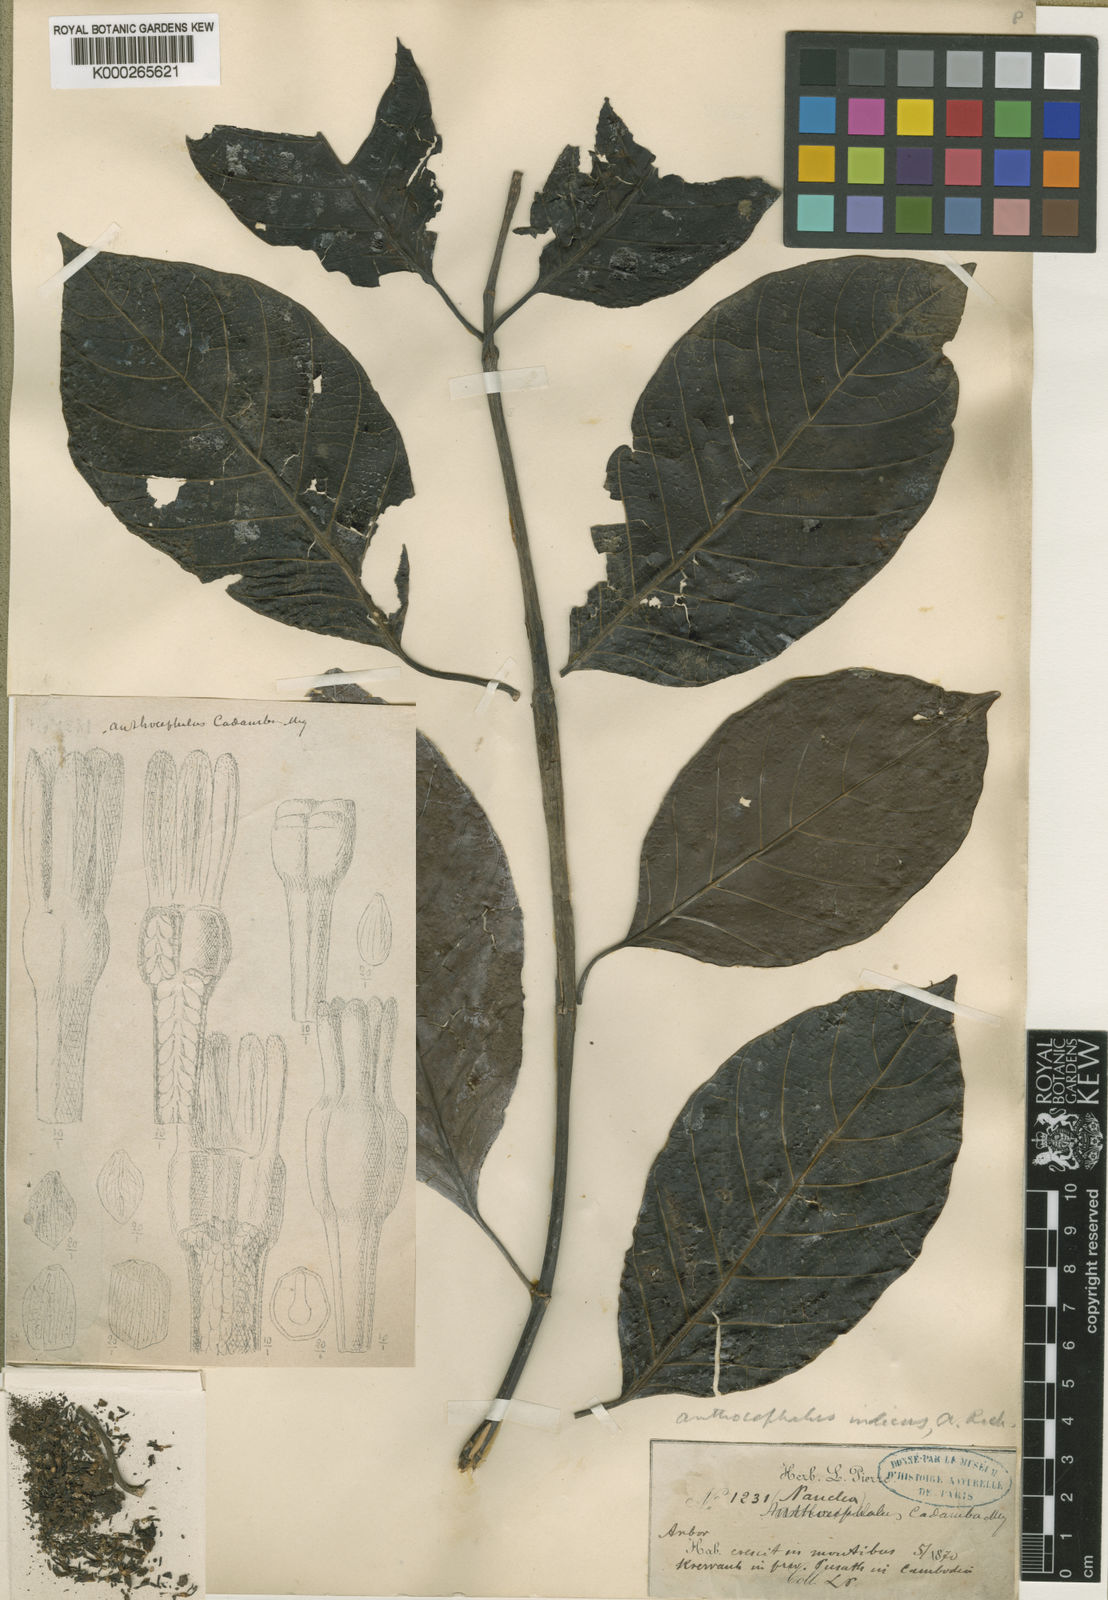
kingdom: Plantae
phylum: Tracheophyta
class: Magnoliopsida
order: Gentianales
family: Rubiaceae
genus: Neolamarckia
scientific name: Neolamarckia cadamba
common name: Leichhardt-pine
